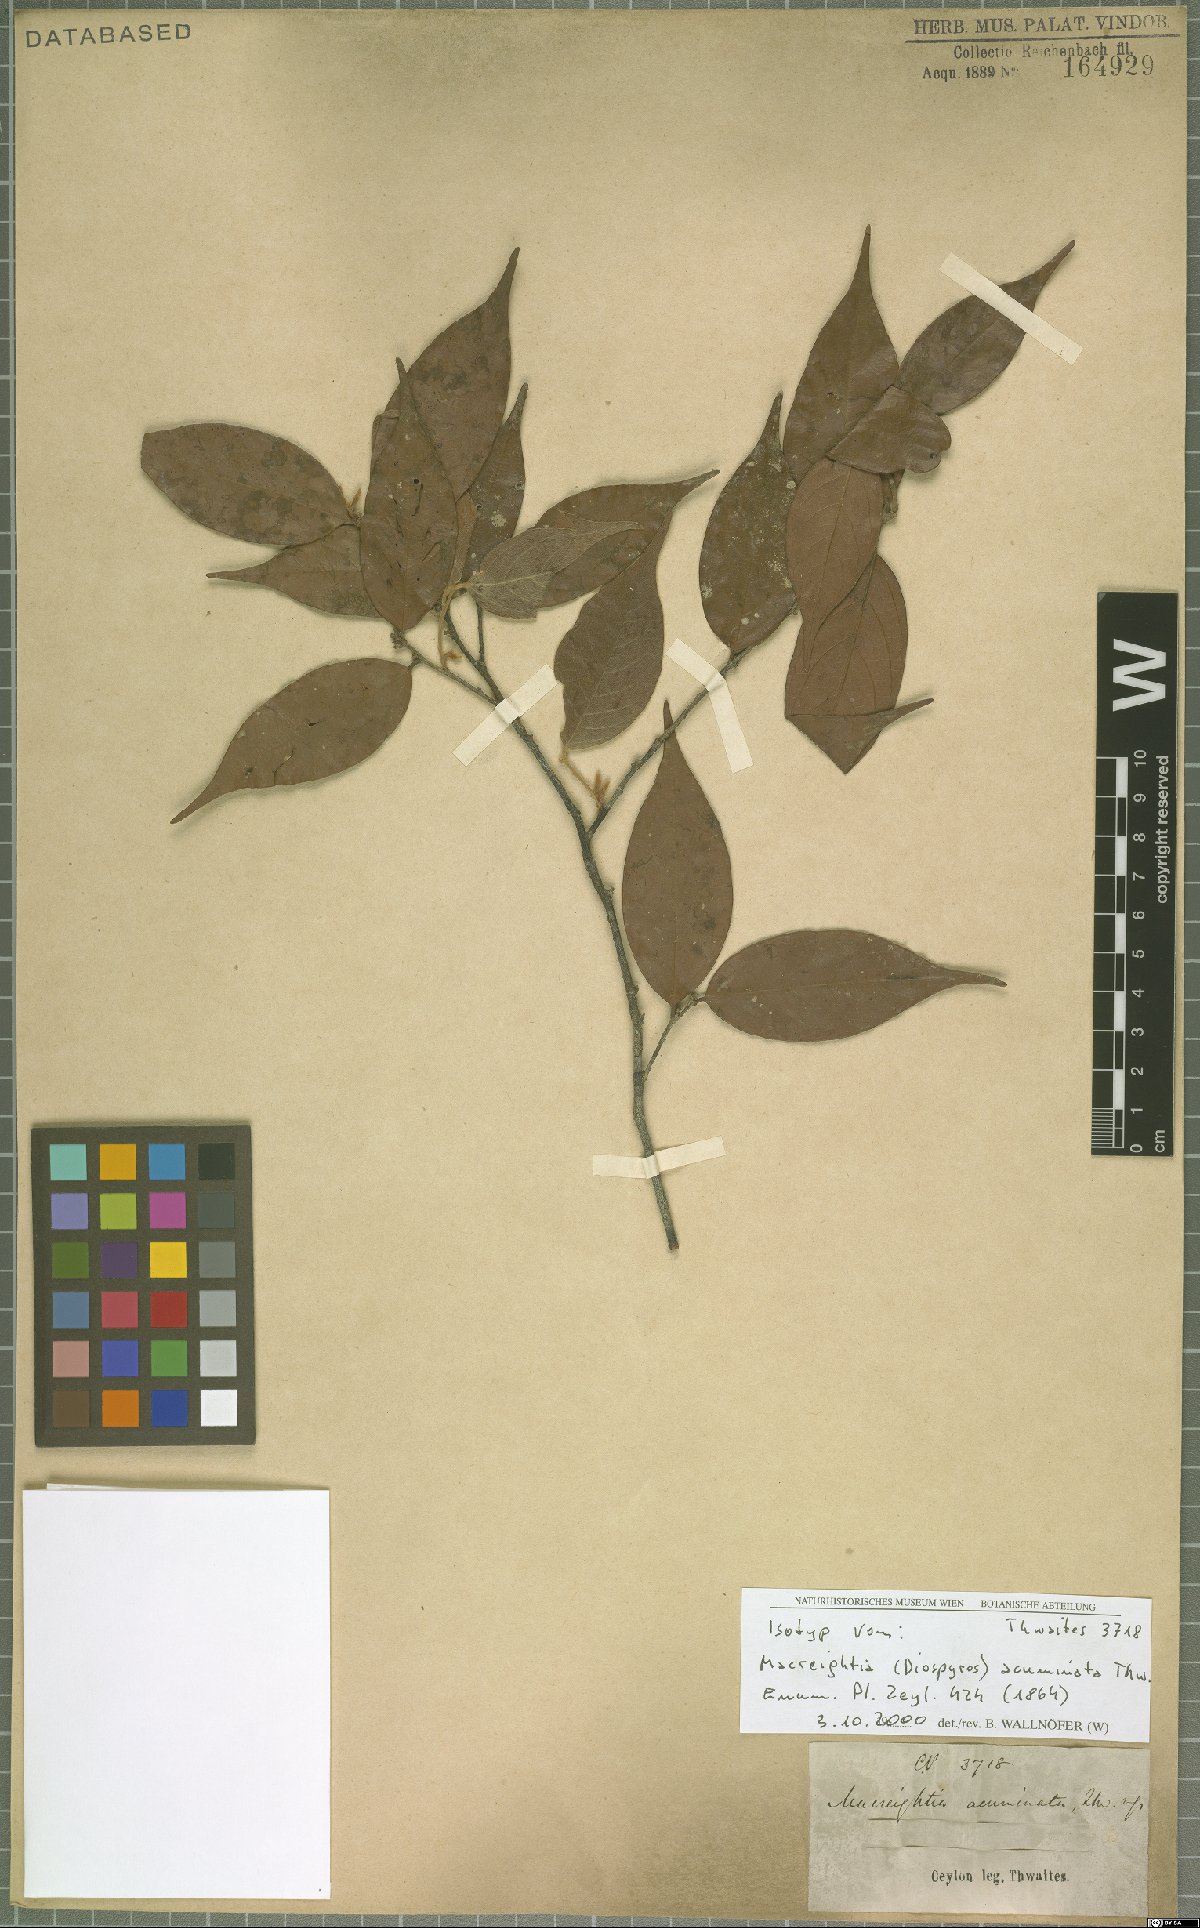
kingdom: Plantae
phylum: Tracheophyta
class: Magnoliopsida
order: Ericales
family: Ebenaceae
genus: Diospyros
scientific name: Diospyros acuminata
